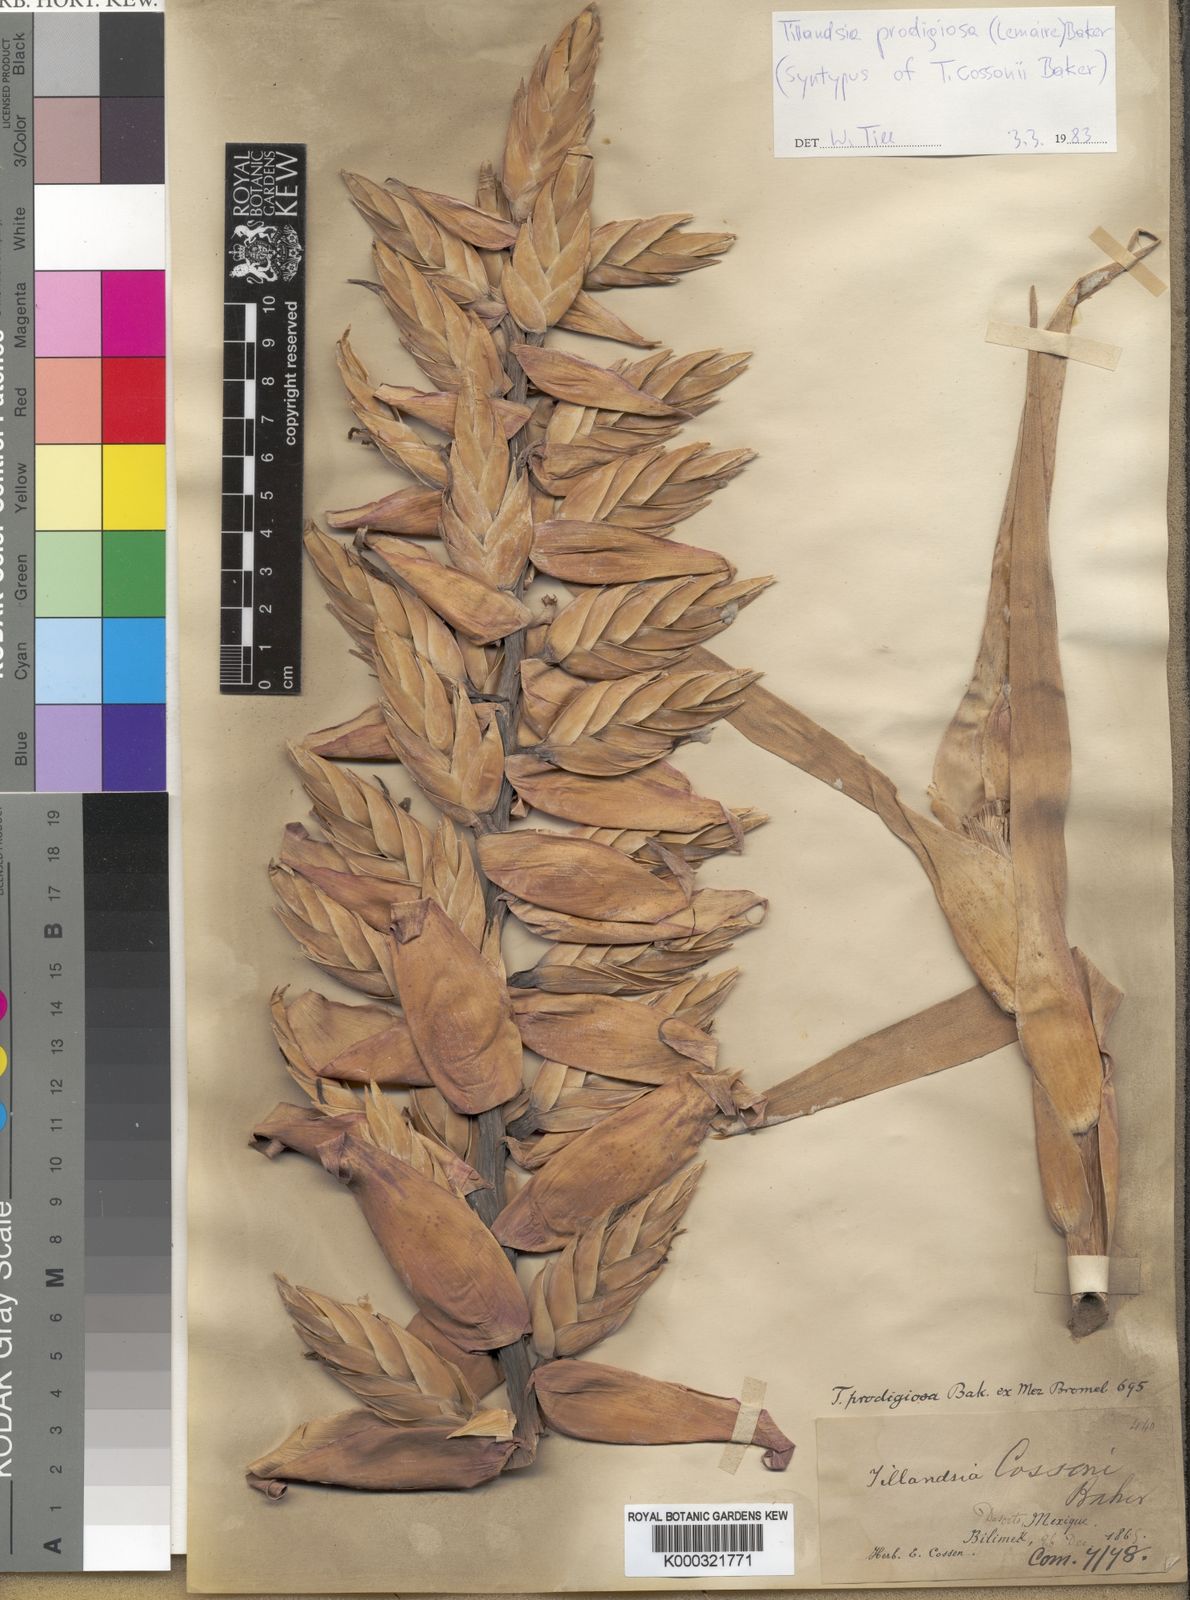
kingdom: Plantae
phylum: Tracheophyta
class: Liliopsida
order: Poales
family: Bromeliaceae
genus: Tillandsia
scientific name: Tillandsia prodigiosa
